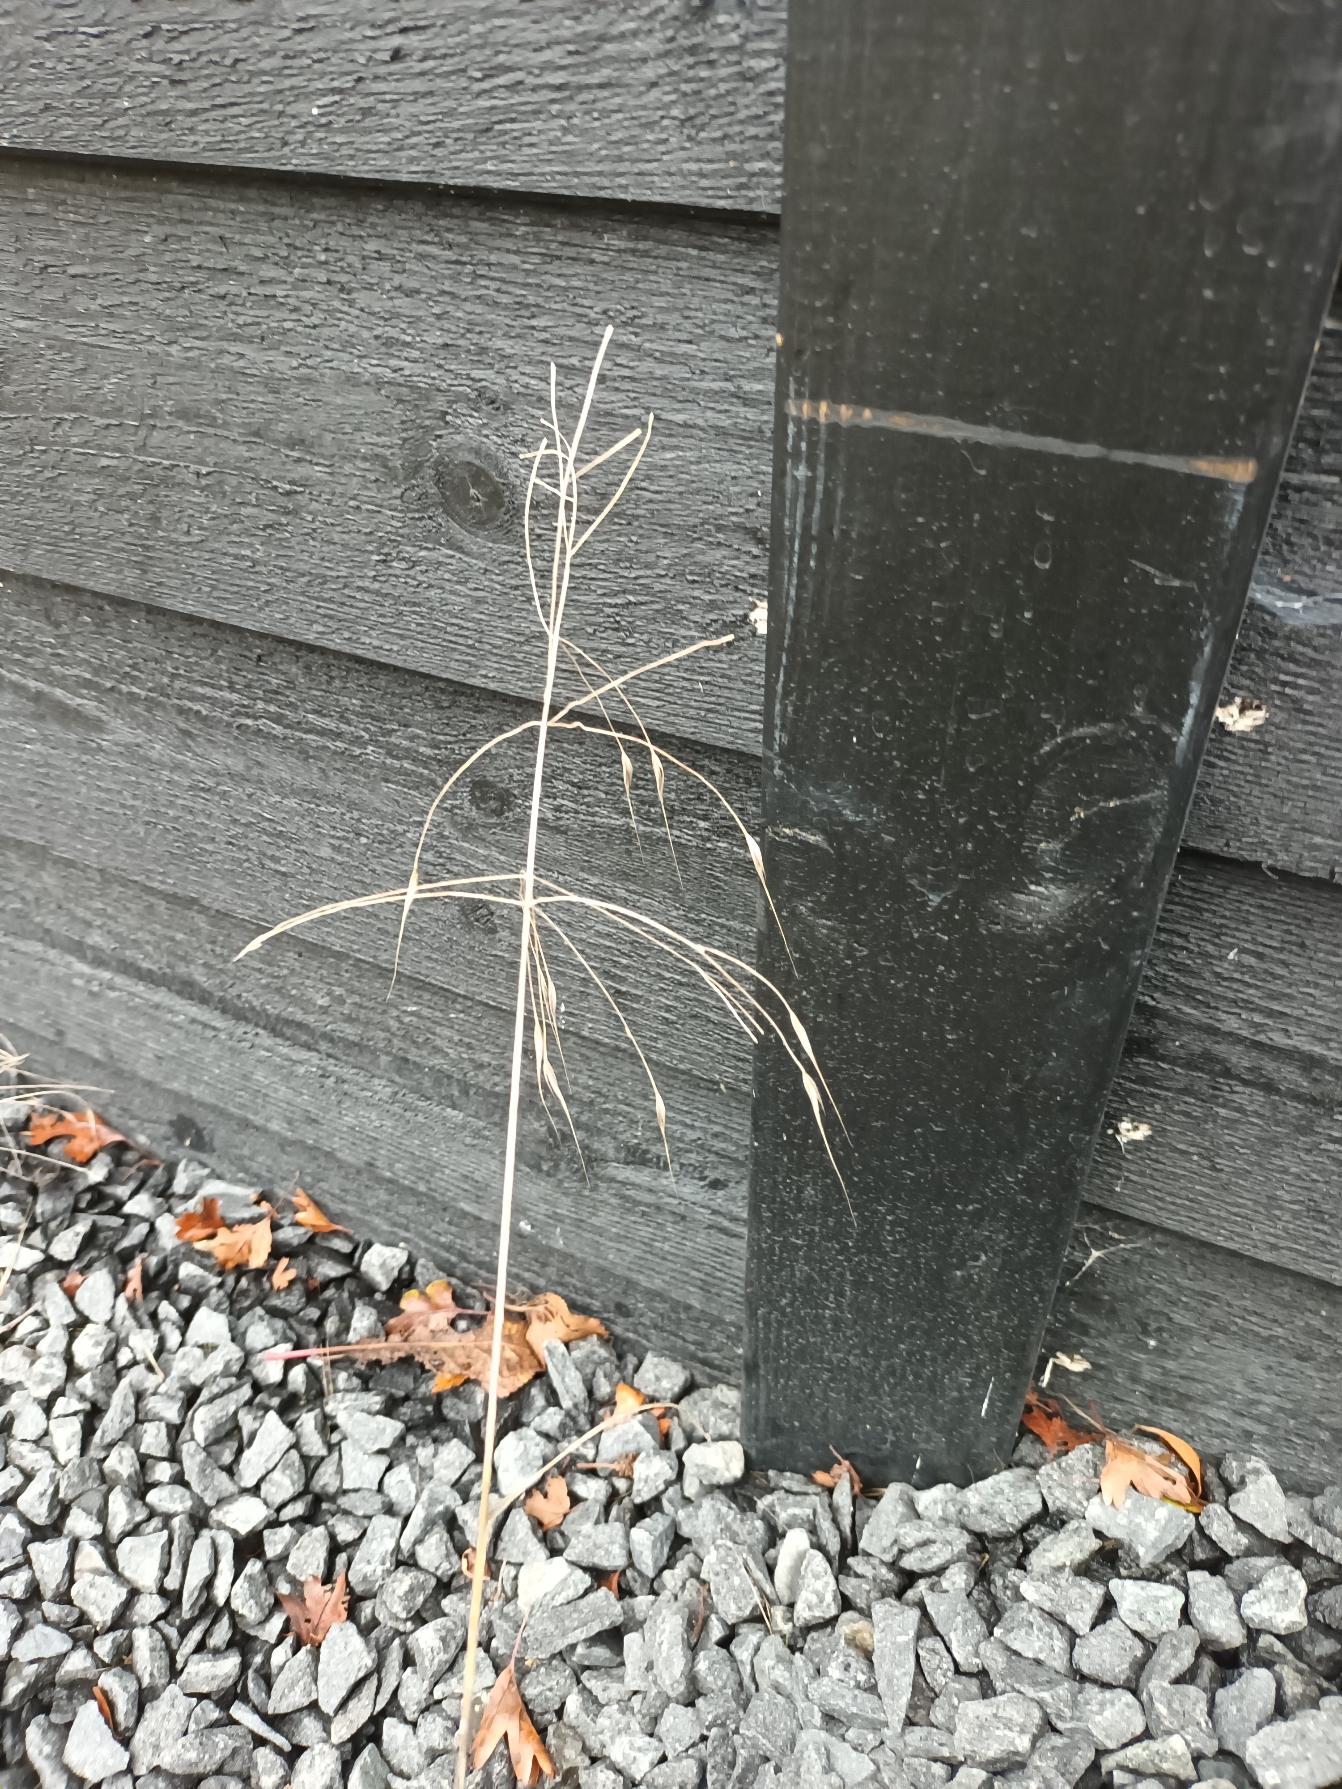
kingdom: Plantae
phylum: Tracheophyta
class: Liliopsida
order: Poales
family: Poaceae
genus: Bromus
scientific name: Bromus sterilis
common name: Gold hejre
